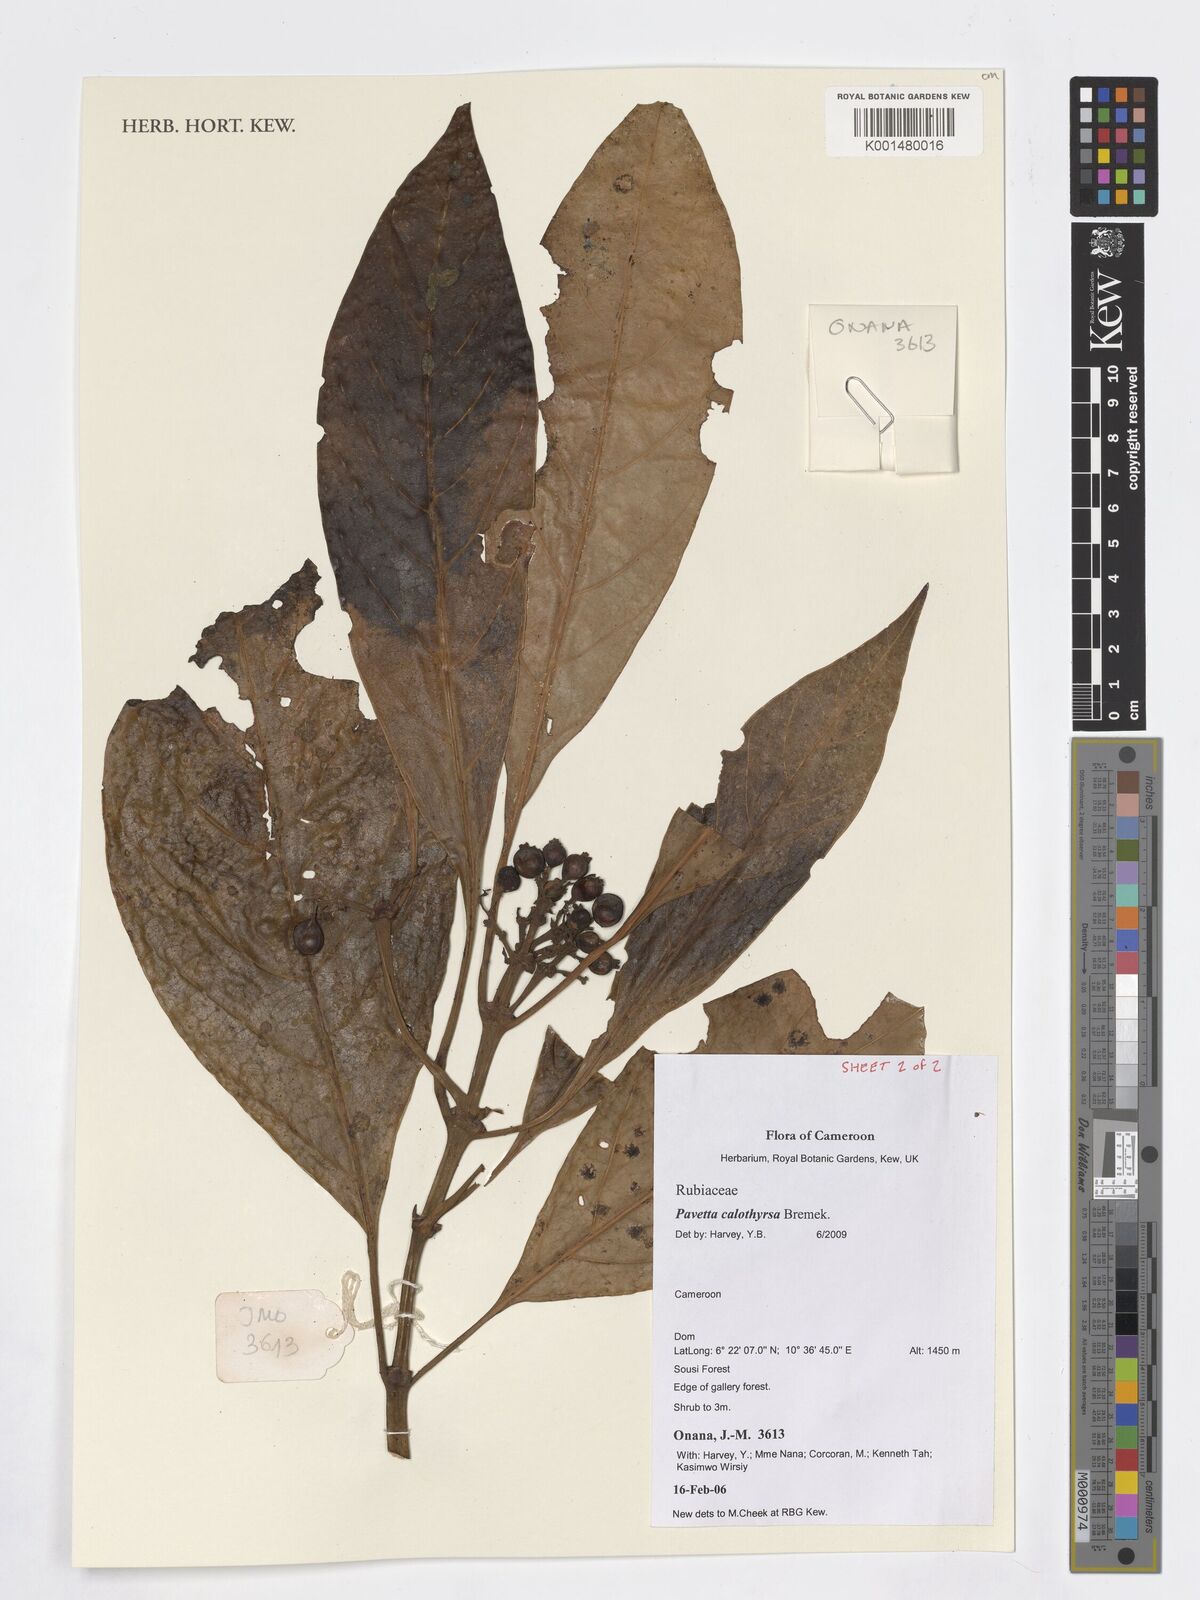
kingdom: Plantae
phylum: Tracheophyta
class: Magnoliopsida
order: Gentianales
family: Rubiaceae
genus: Pavetta
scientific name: Pavetta calothyrsa
